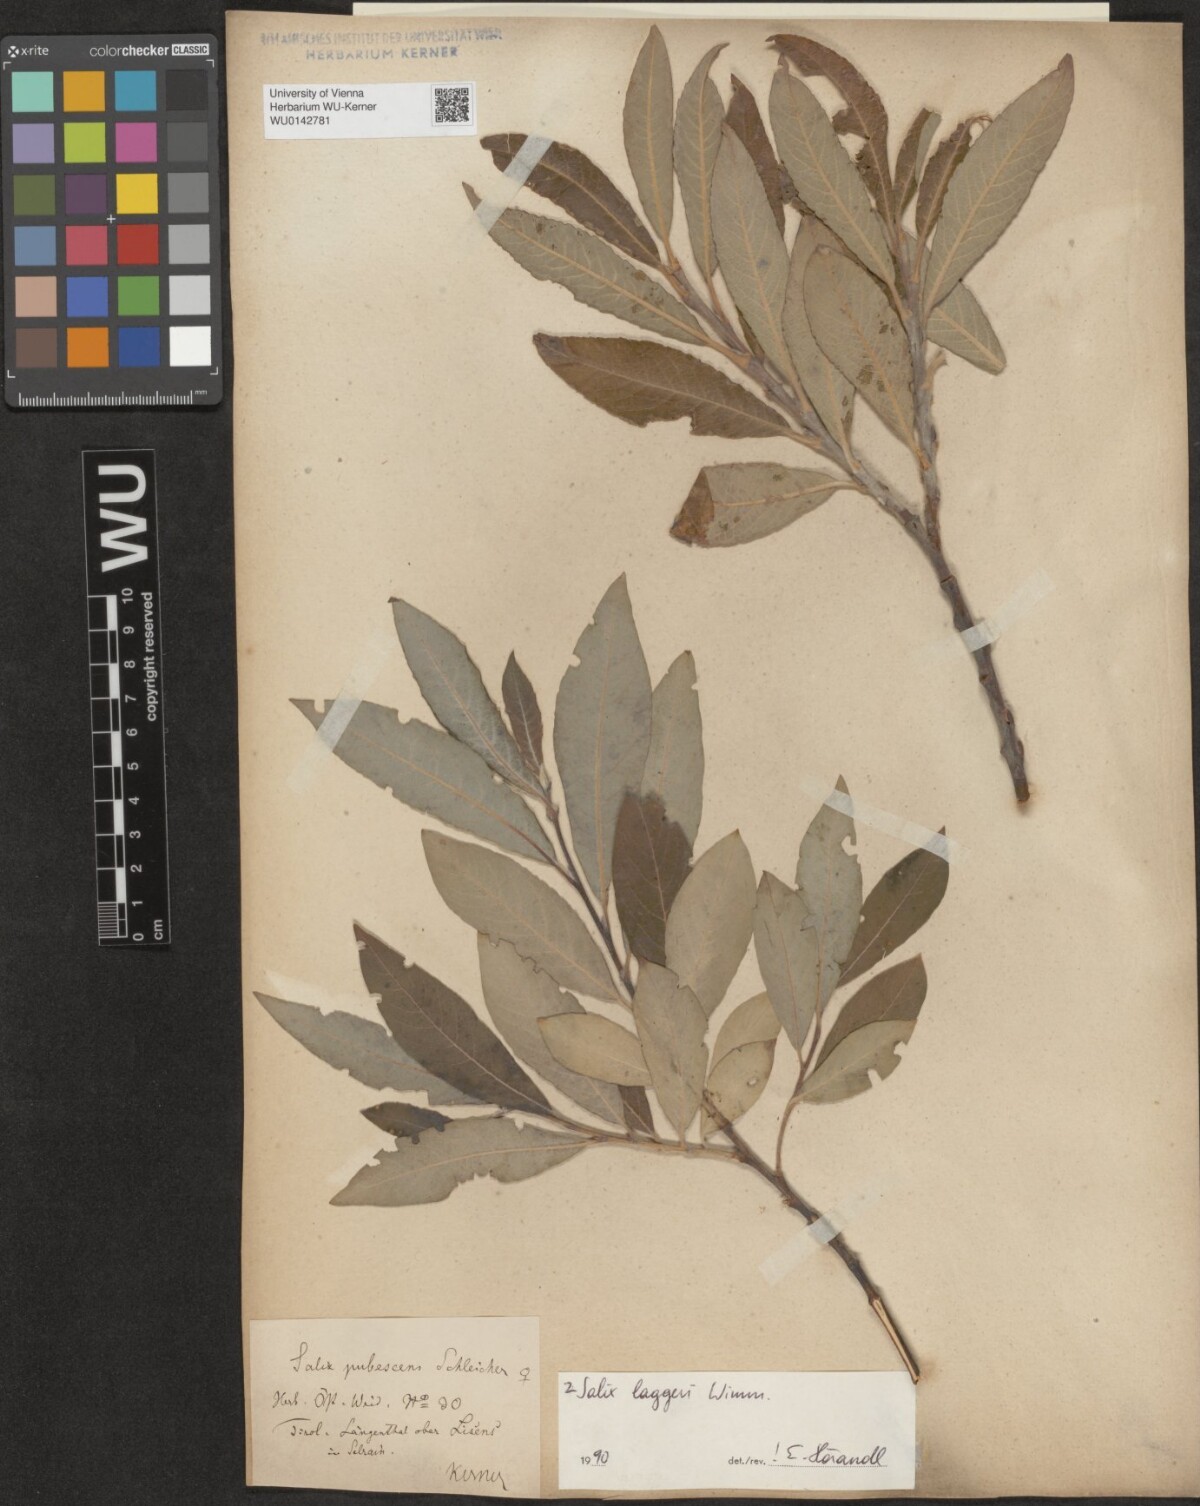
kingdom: Plantae
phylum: Tracheophyta
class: Magnoliopsida
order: Malpighiales
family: Salicaceae
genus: Salix
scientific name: Salix laggeri
